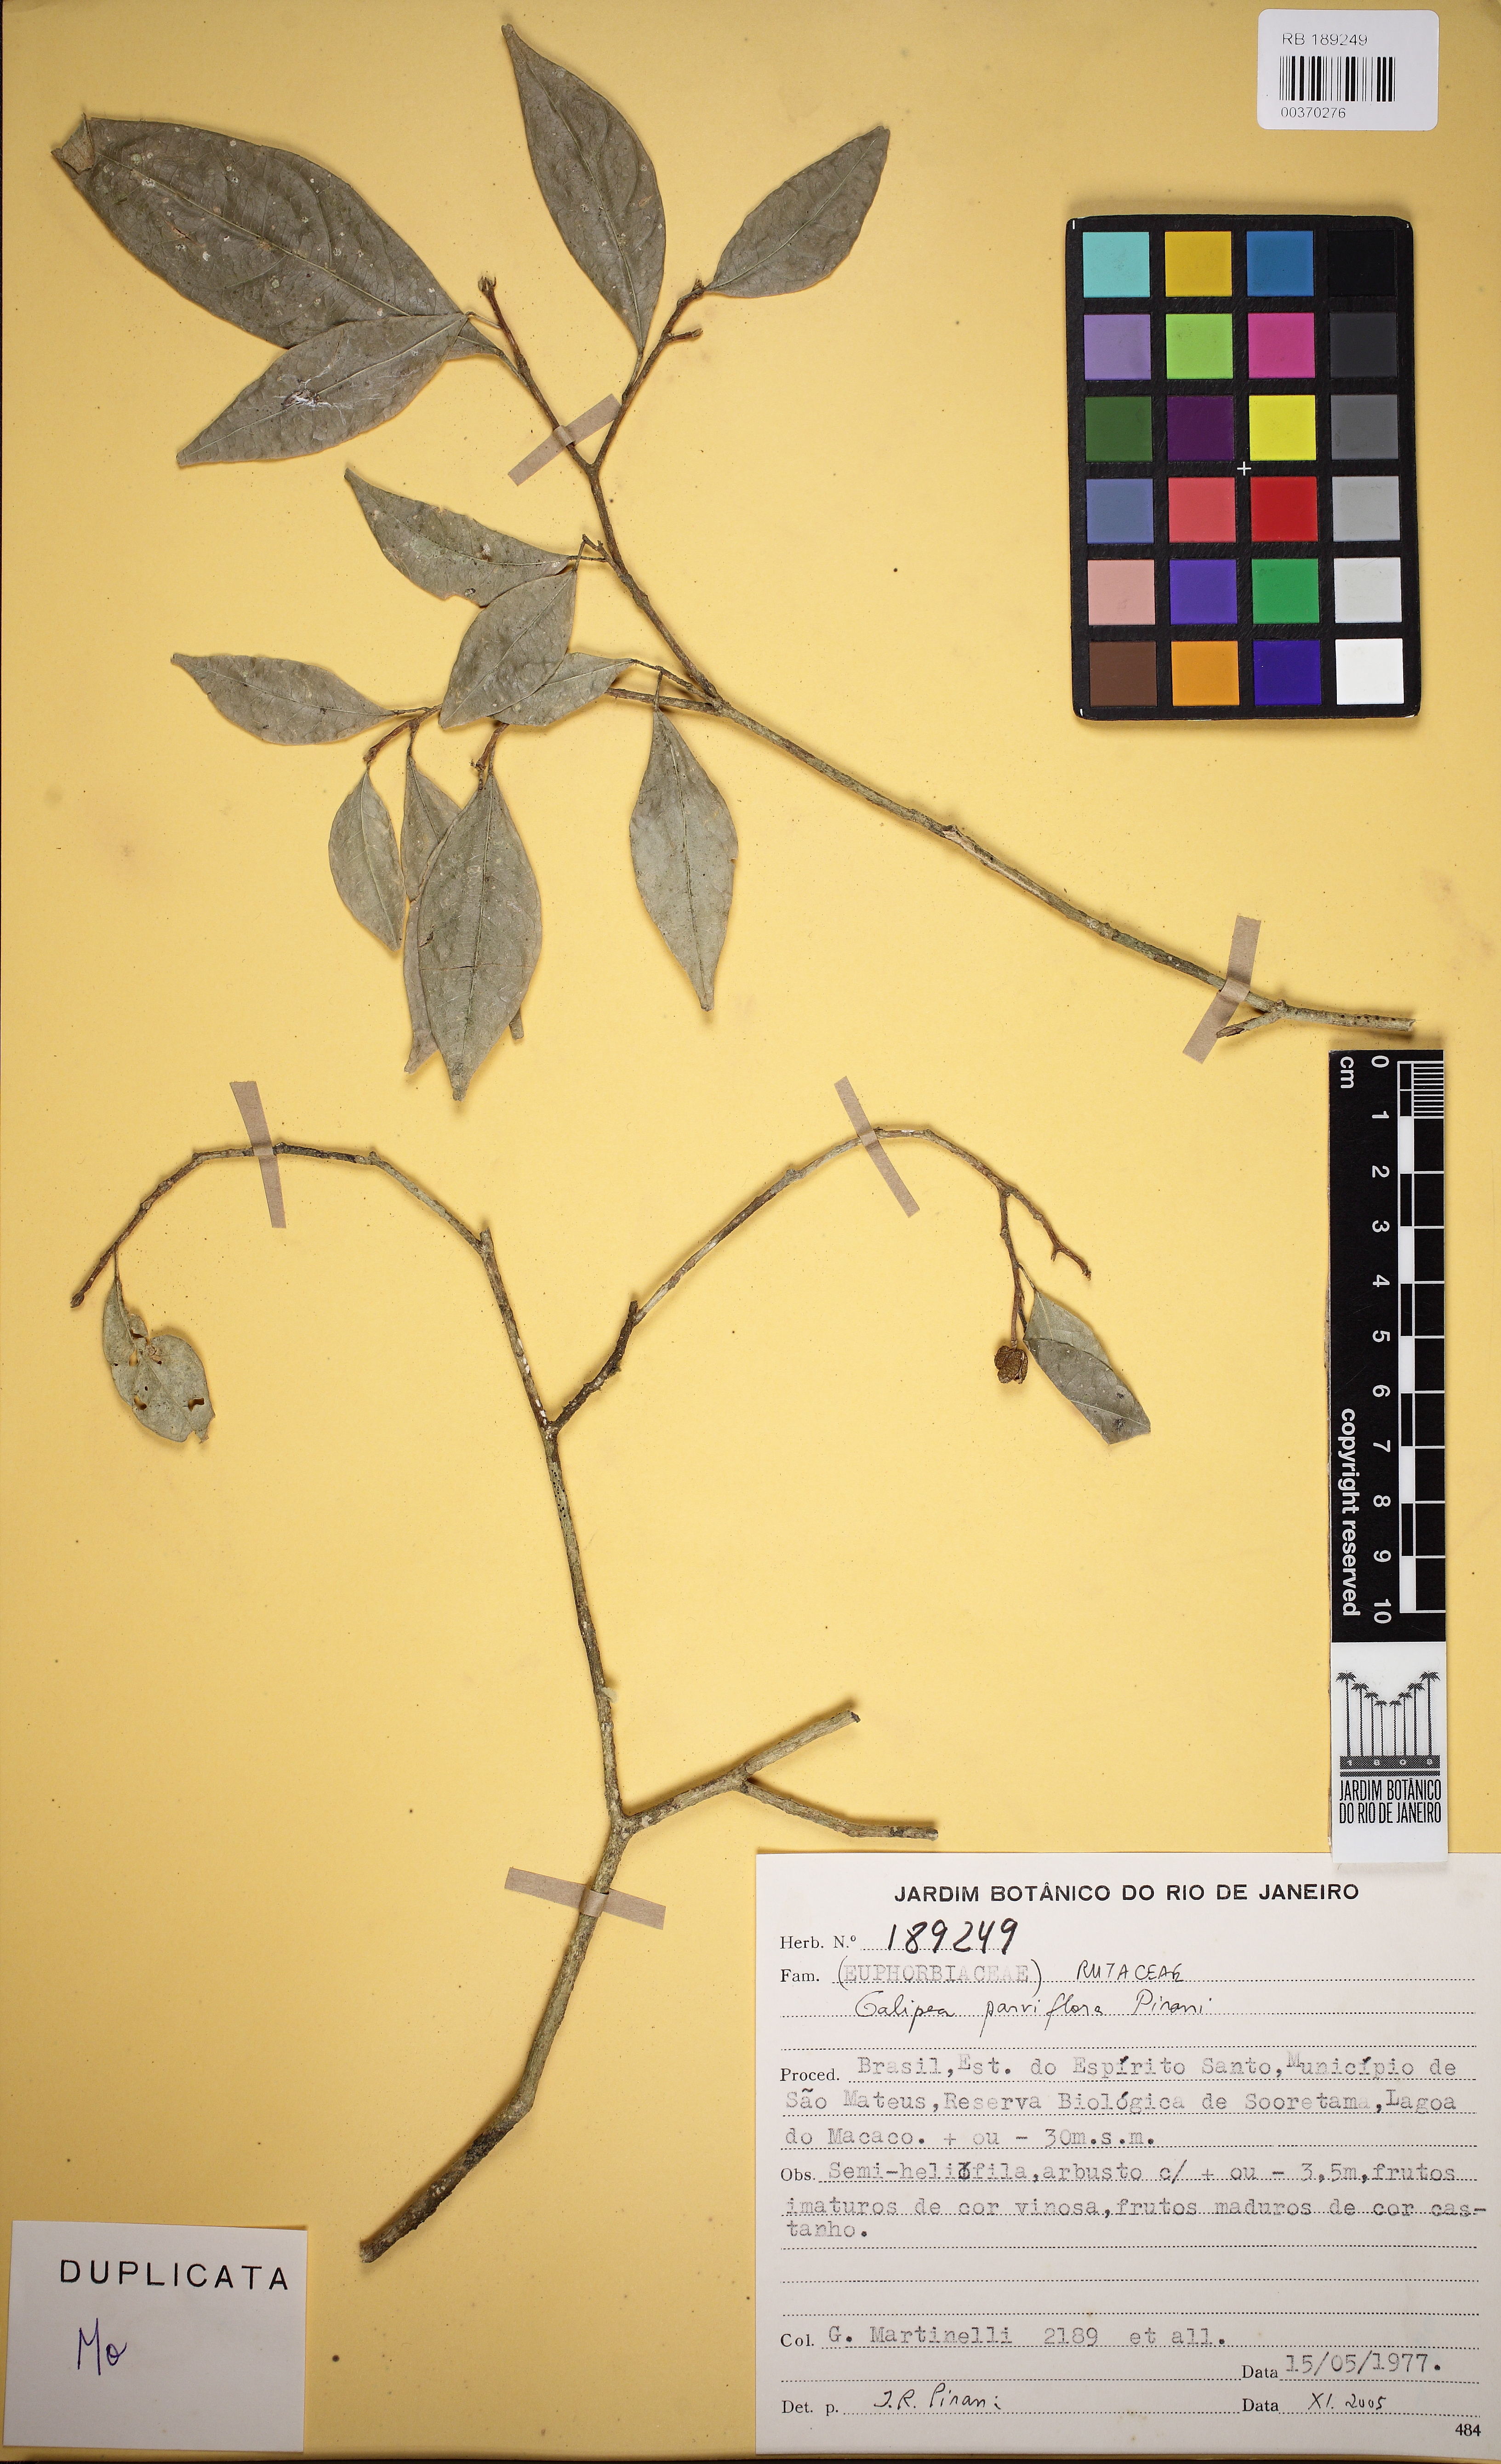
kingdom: Plantae
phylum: Tracheophyta
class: Magnoliopsida
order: Sapindales
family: Rutaceae
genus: Galipea
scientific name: Galipea
